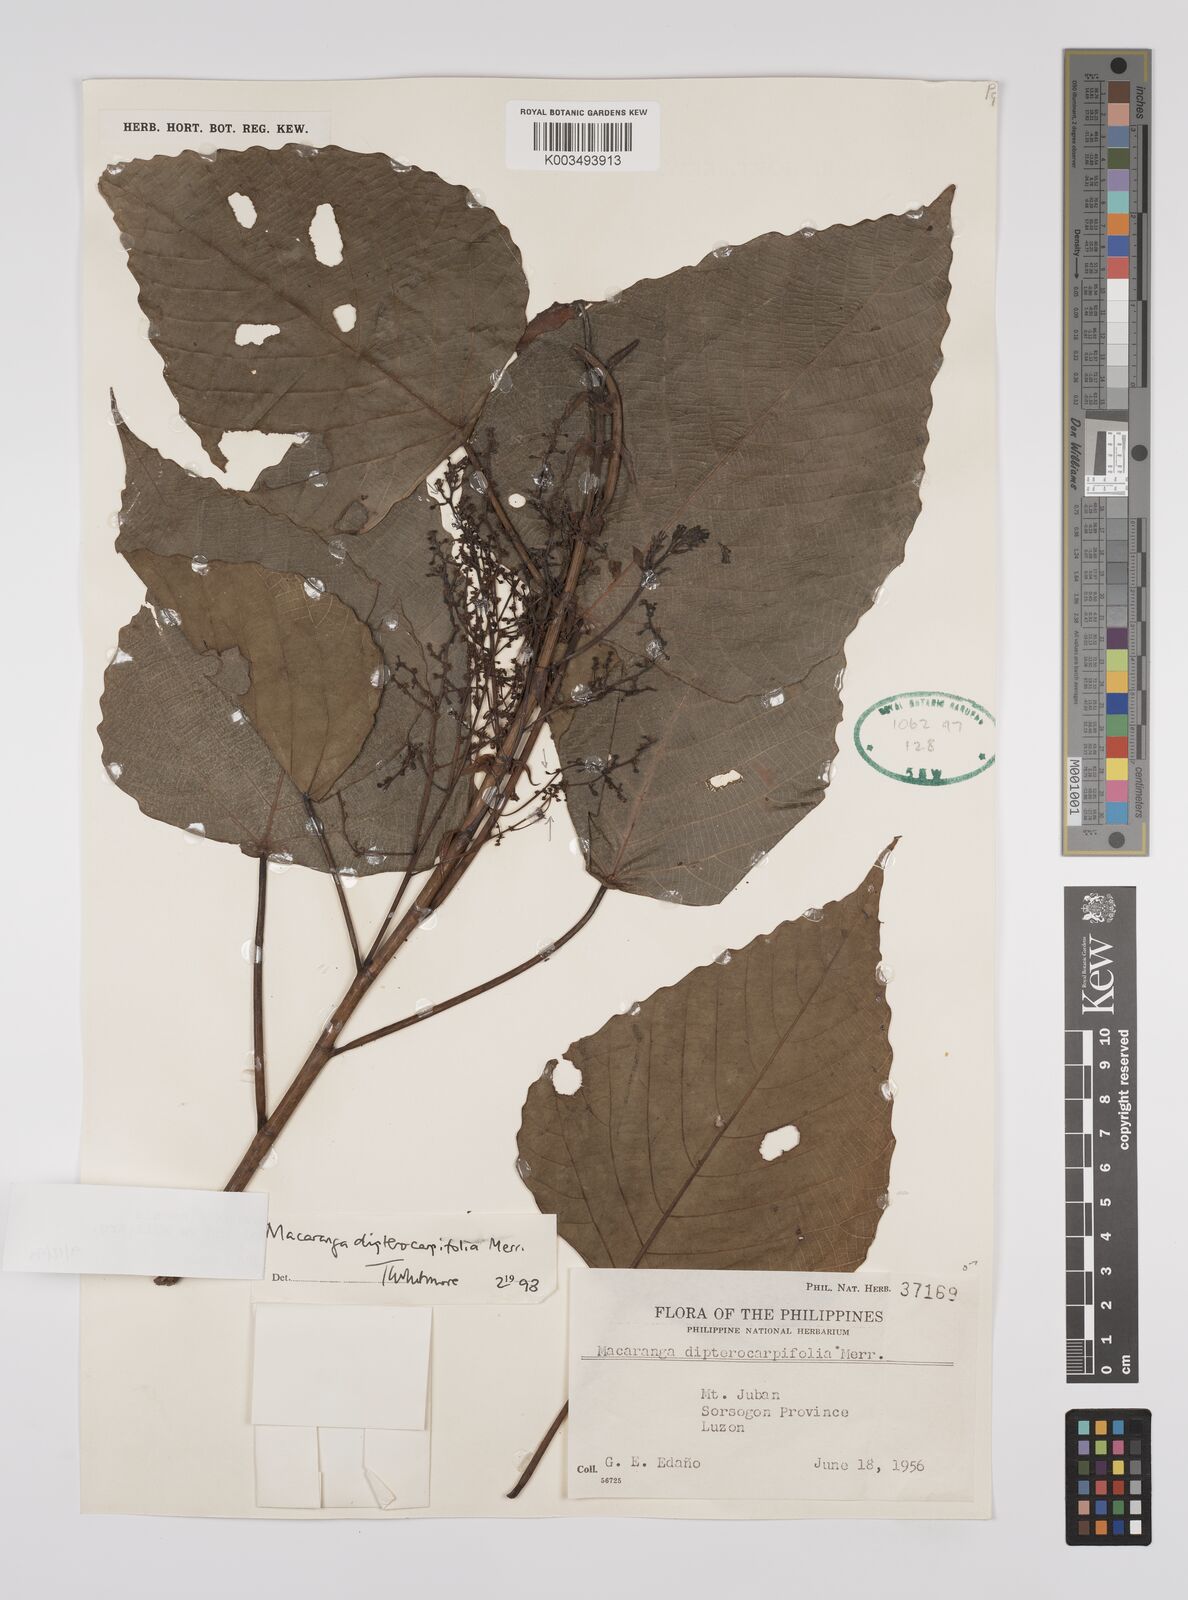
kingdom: Plantae
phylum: Tracheophyta
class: Magnoliopsida
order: Malpighiales
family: Euphorbiaceae
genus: Macaranga
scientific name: Macaranga sinensis
